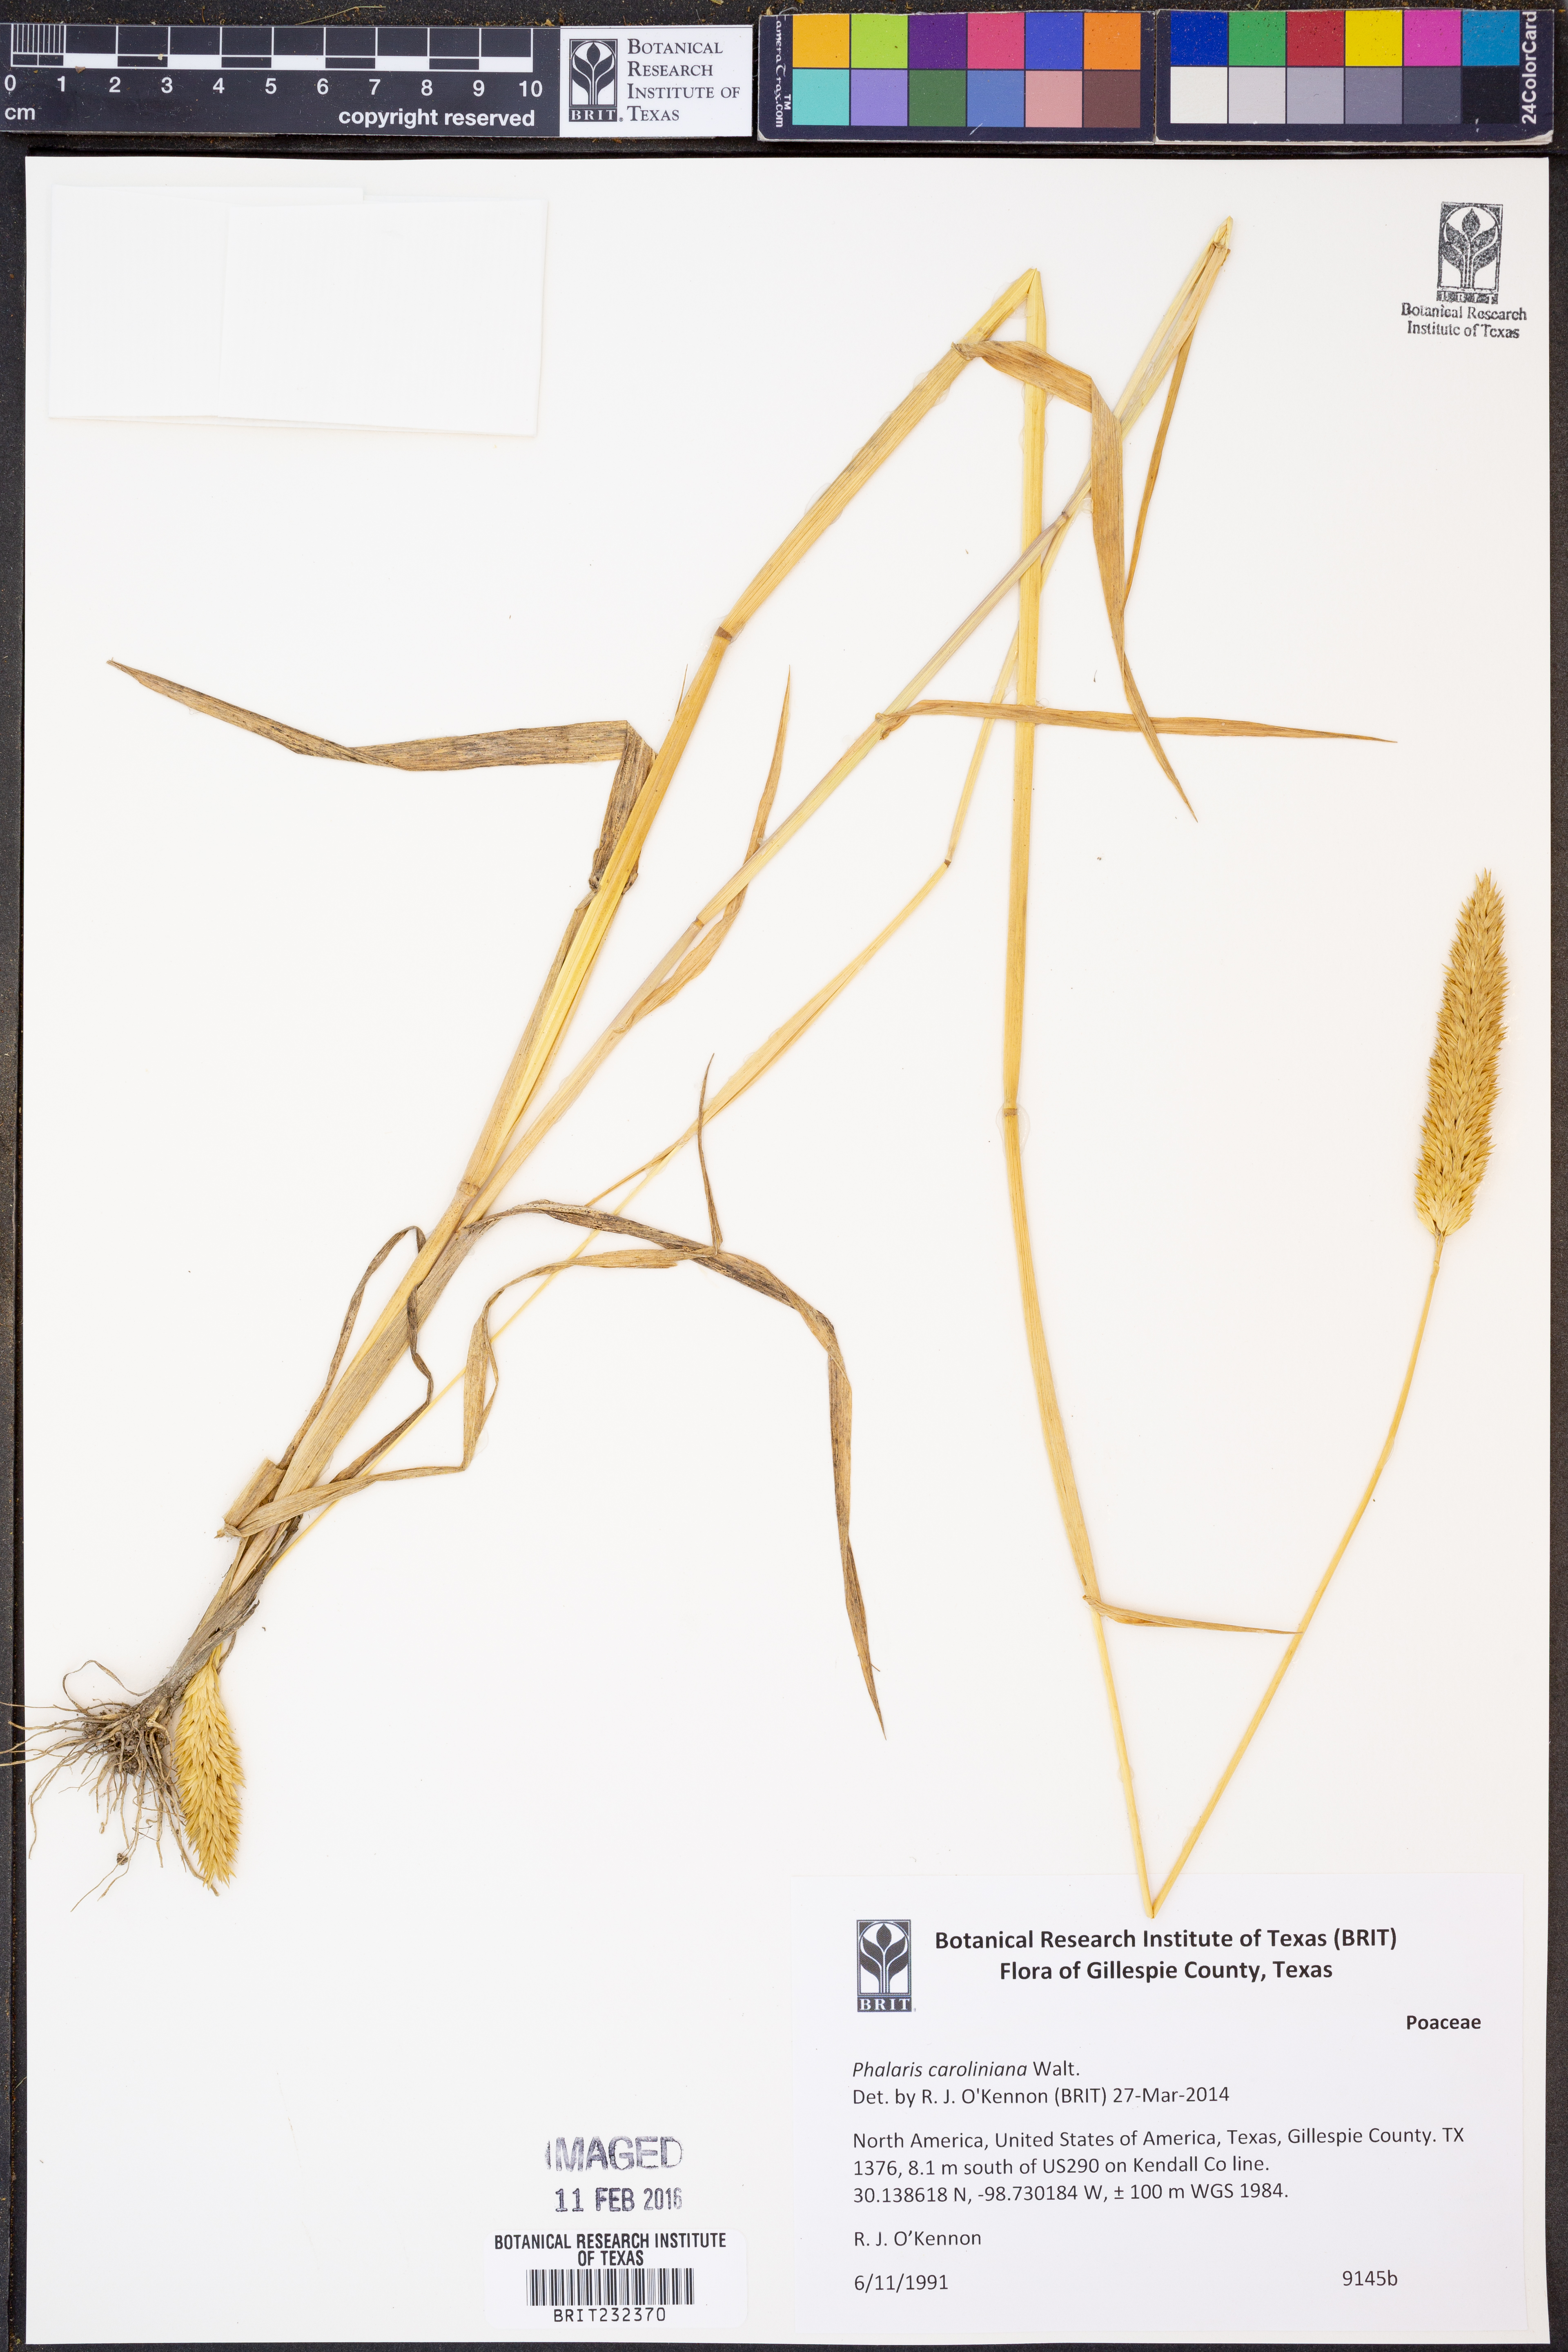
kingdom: Plantae
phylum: Tracheophyta
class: Liliopsida
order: Poales
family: Poaceae
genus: Phalaris
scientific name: Phalaris caroliniana
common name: May grass
